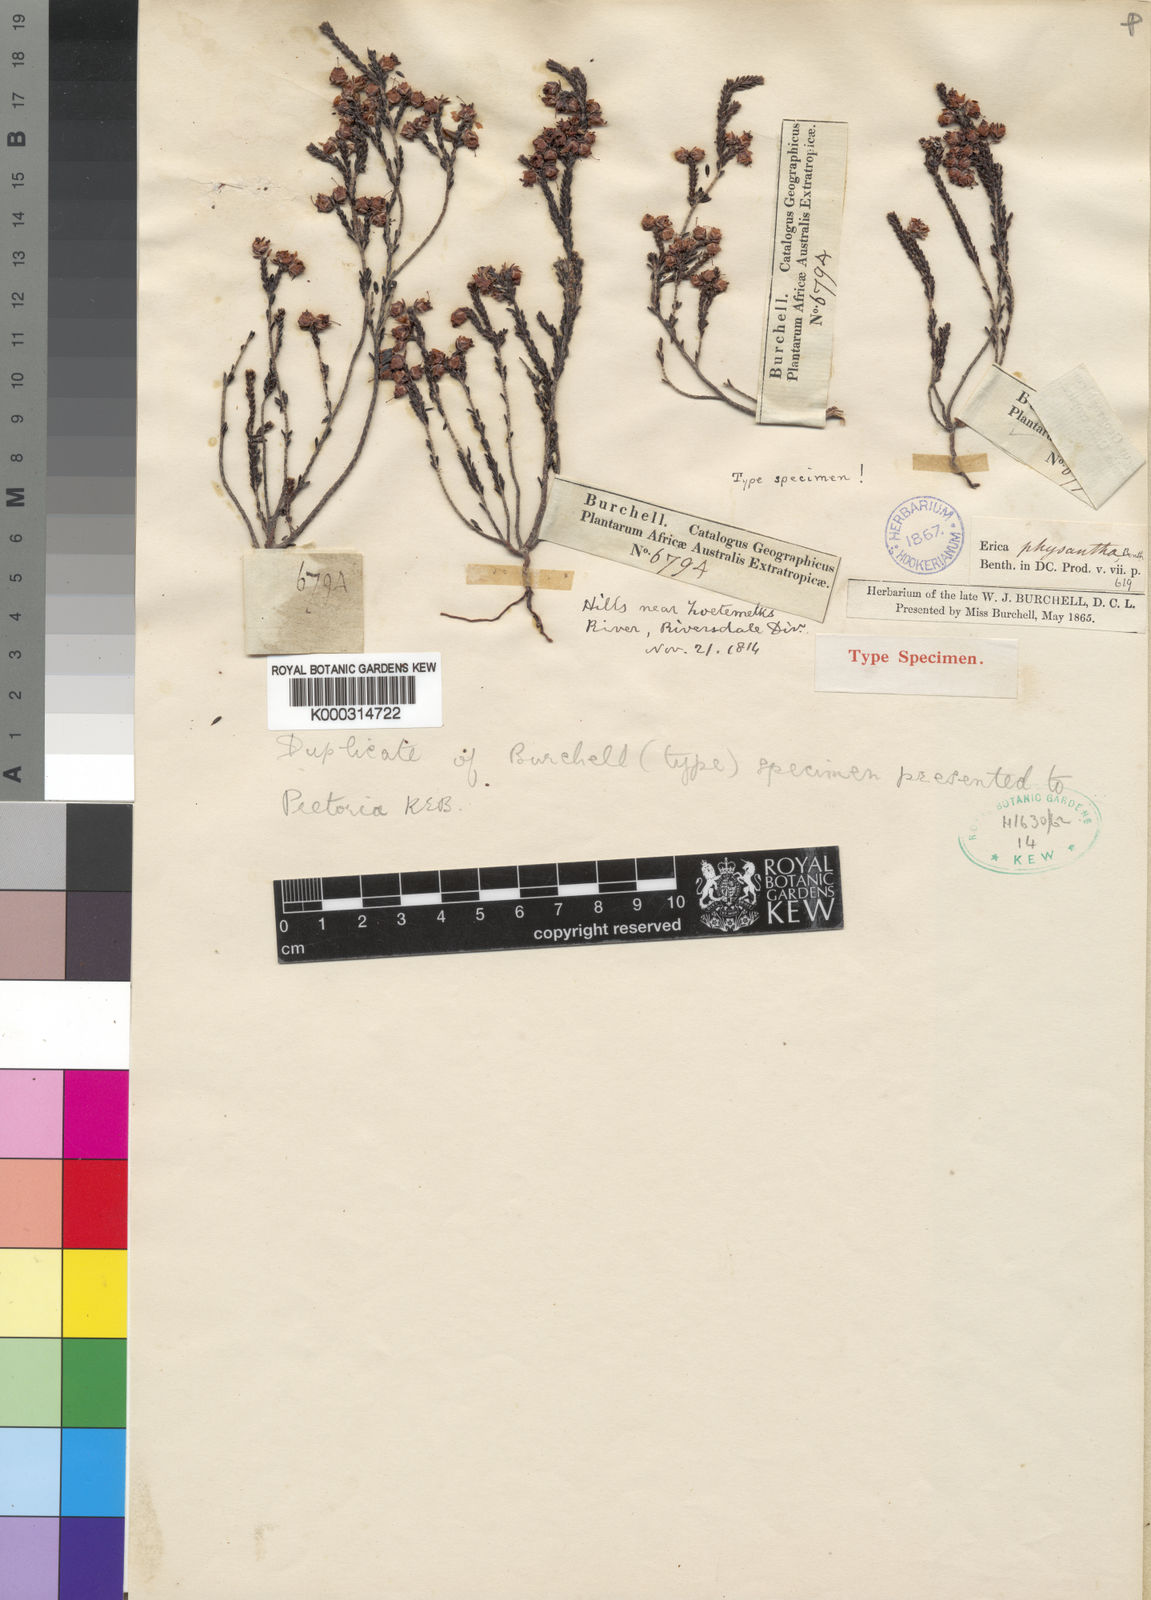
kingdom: Plantae
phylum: Tracheophyta
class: Magnoliopsida
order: Ericales
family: Ericaceae
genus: Erica
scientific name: Erica physantha
